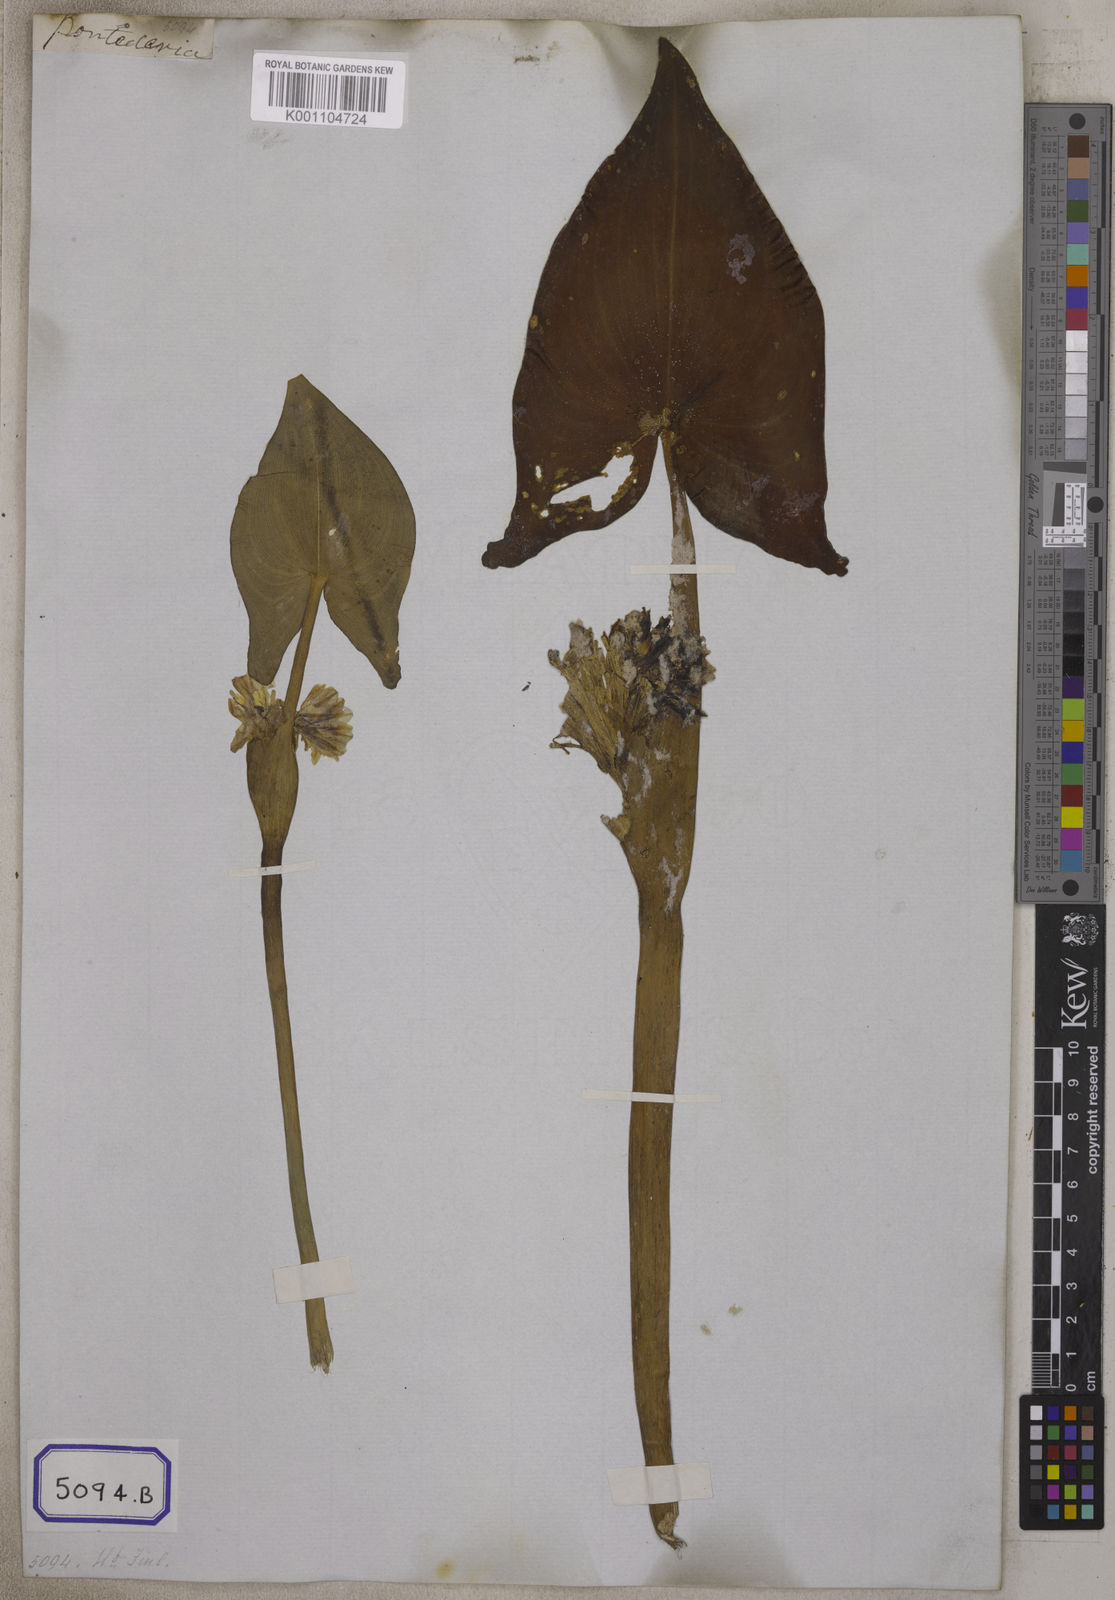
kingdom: Plantae
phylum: Tracheophyta
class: Liliopsida
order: Commelinales
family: Pontederiaceae
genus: Pontederia
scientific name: Pontederia
